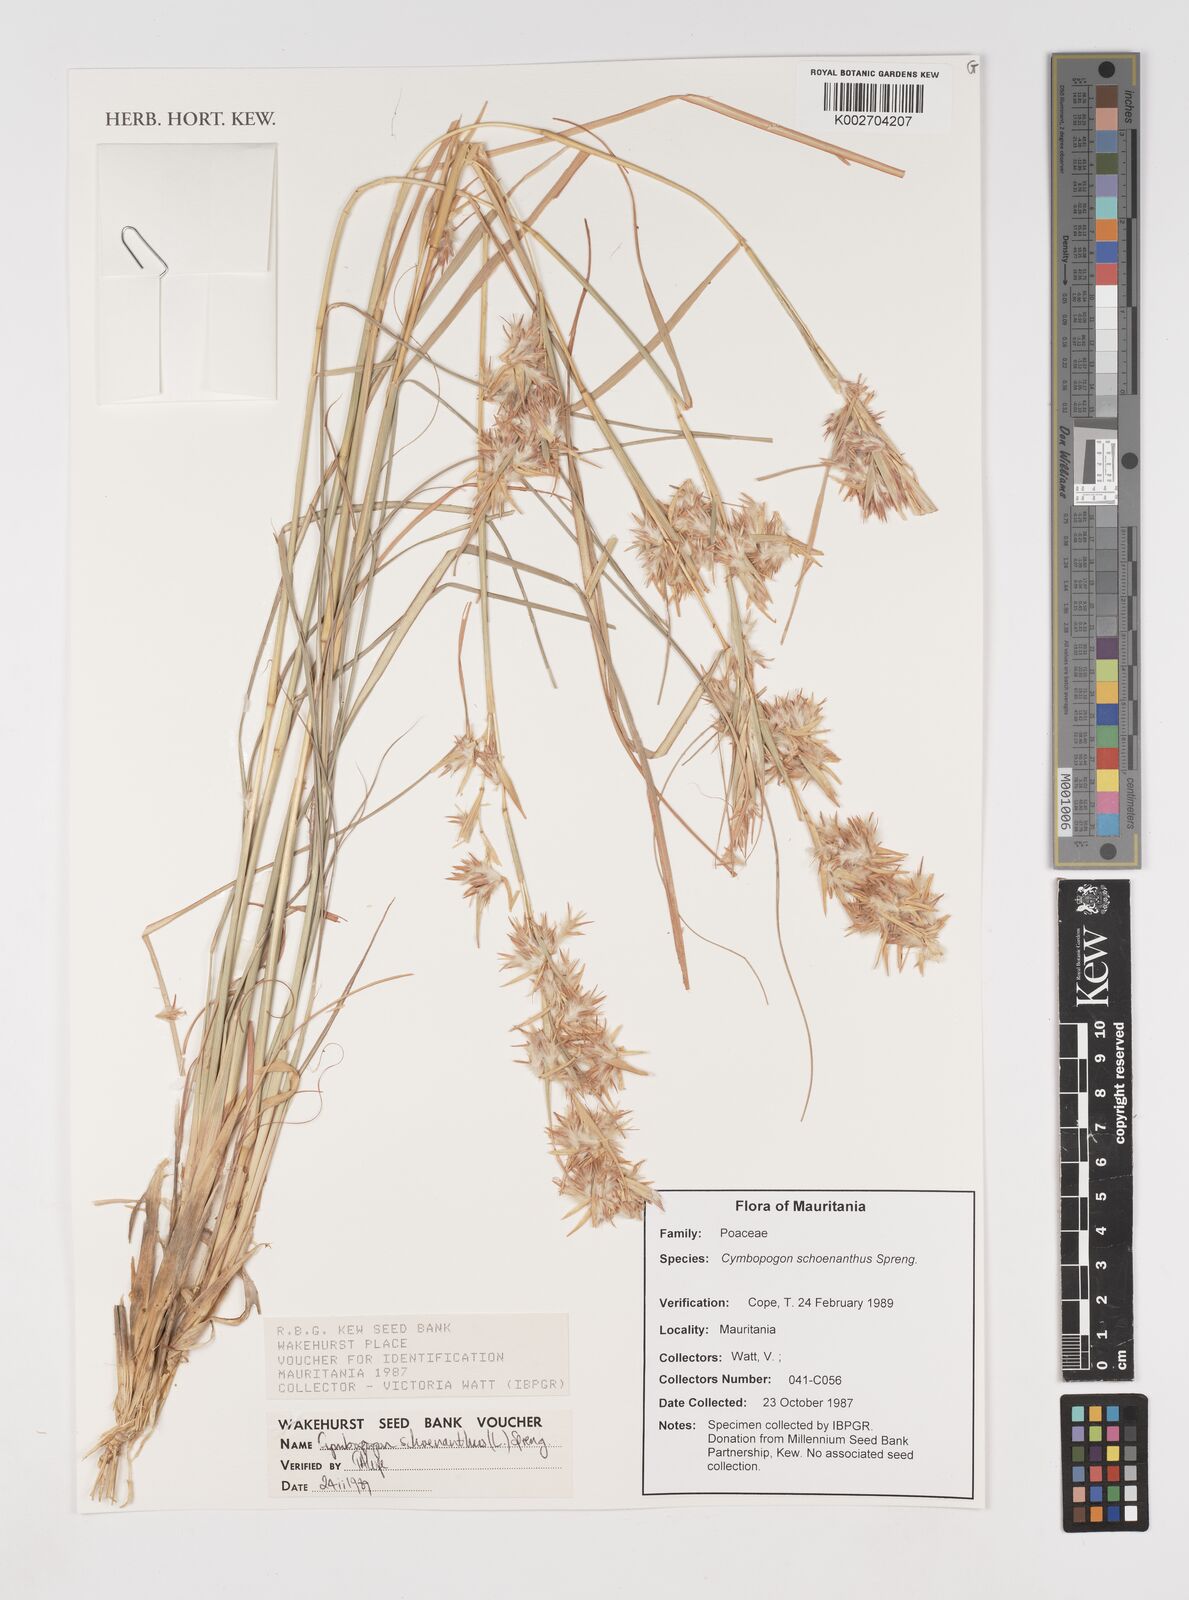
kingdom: Plantae
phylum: Tracheophyta
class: Liliopsida
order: Poales
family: Poaceae
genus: Cymbopogon
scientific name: Cymbopogon schoenanthus
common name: Geranium grass
